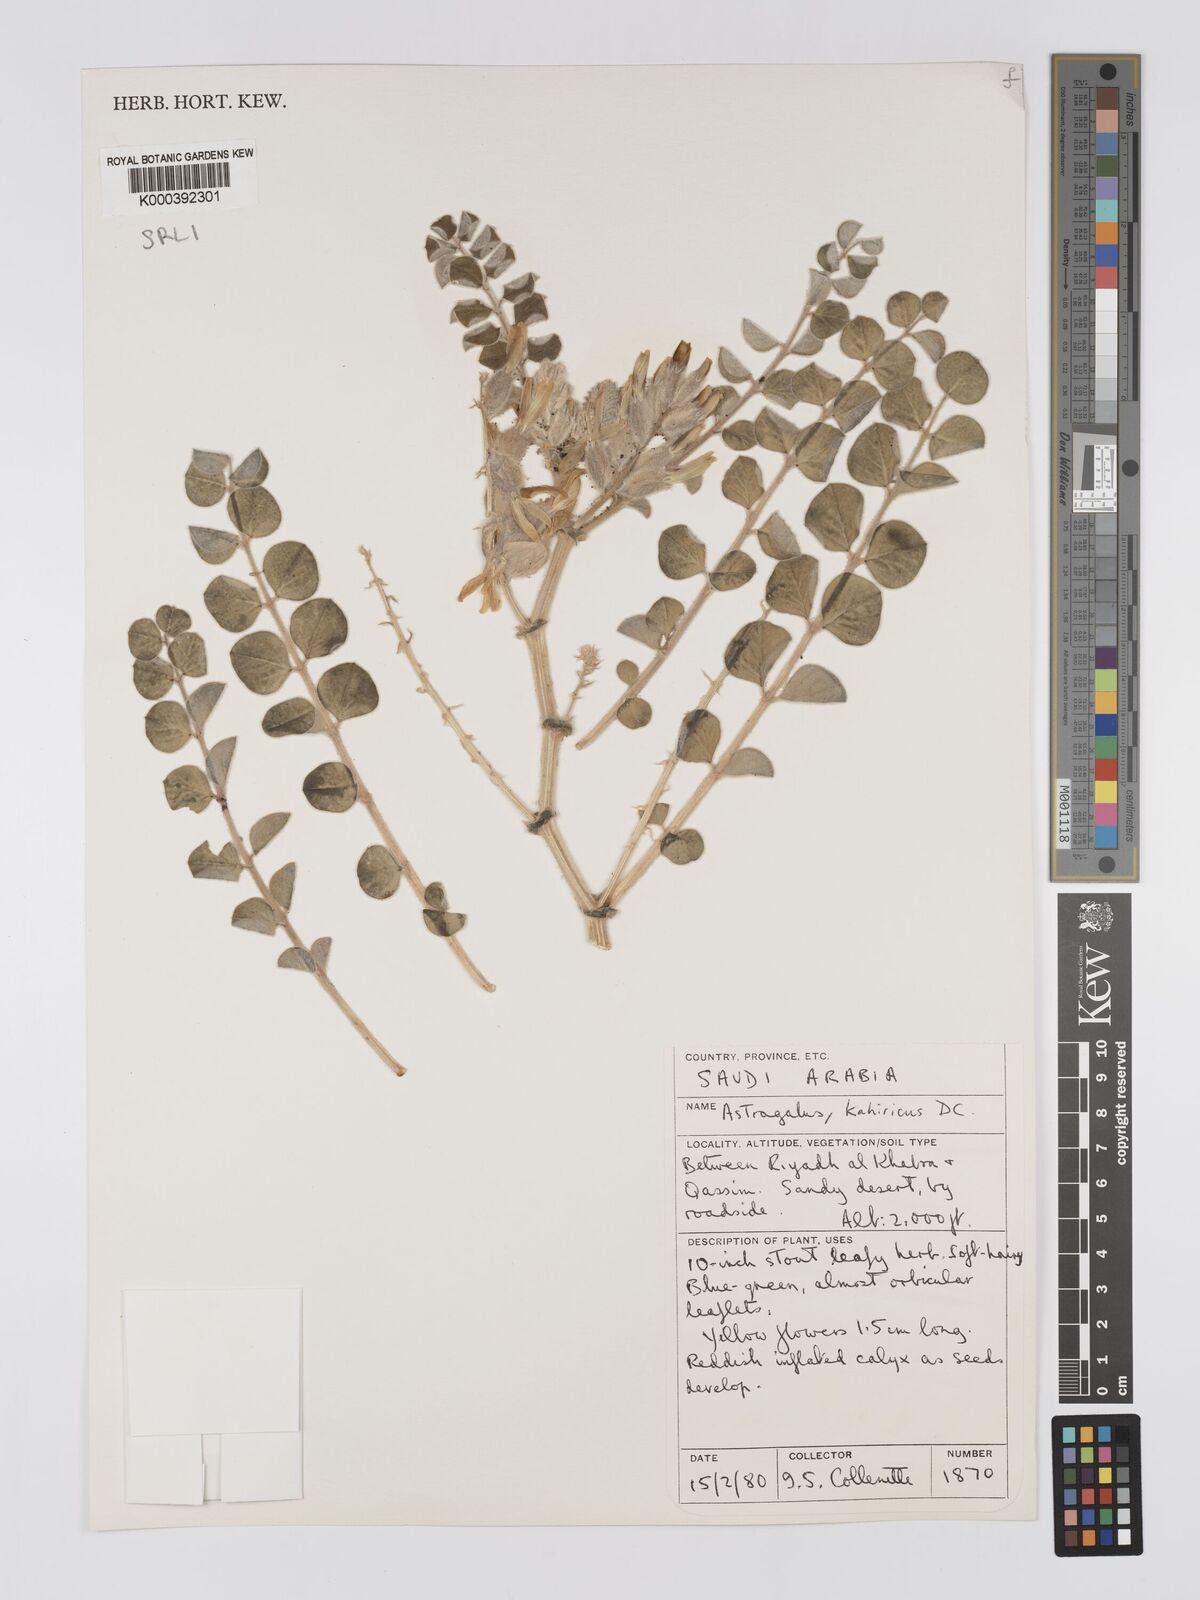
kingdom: Plantae
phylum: Tracheophyta
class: Magnoliopsida
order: Fabales
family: Fabaceae
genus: Astragalus
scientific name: Astragalus kahiricus
